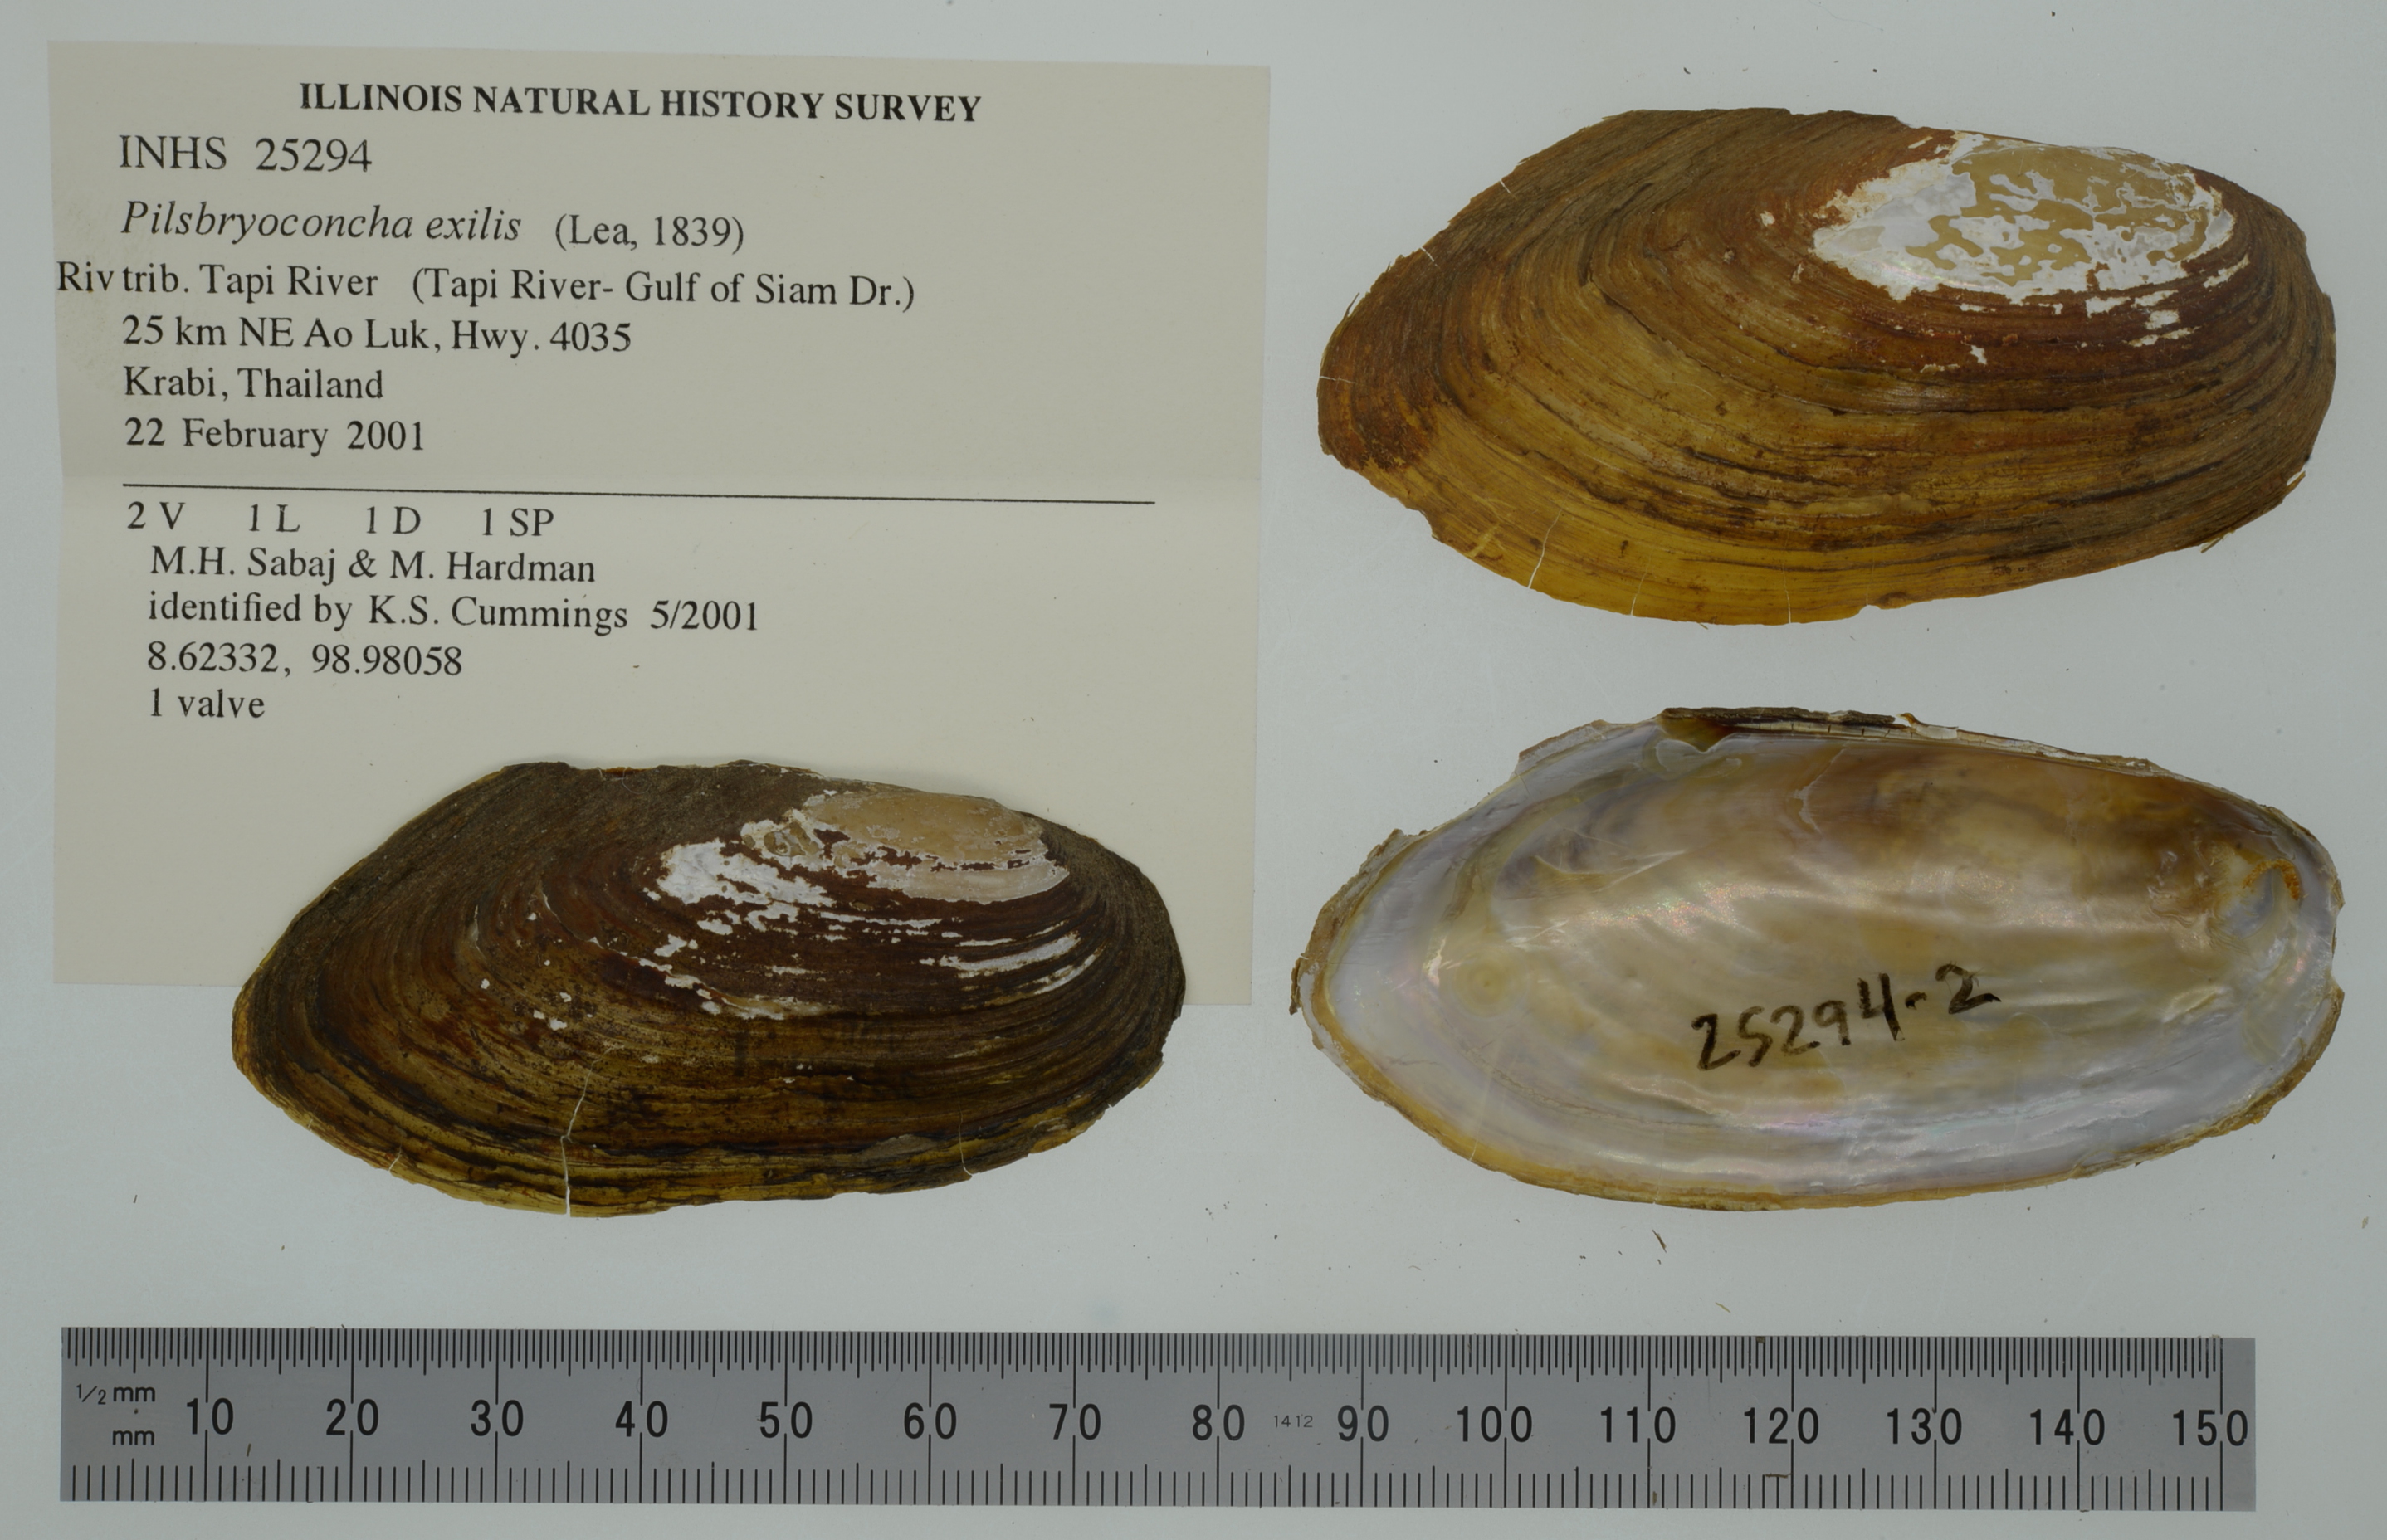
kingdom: Animalia
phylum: Mollusca
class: Bivalvia
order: Unionida
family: Unionidae
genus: Pilsbryoconcha
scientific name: Pilsbryoconcha exilis
